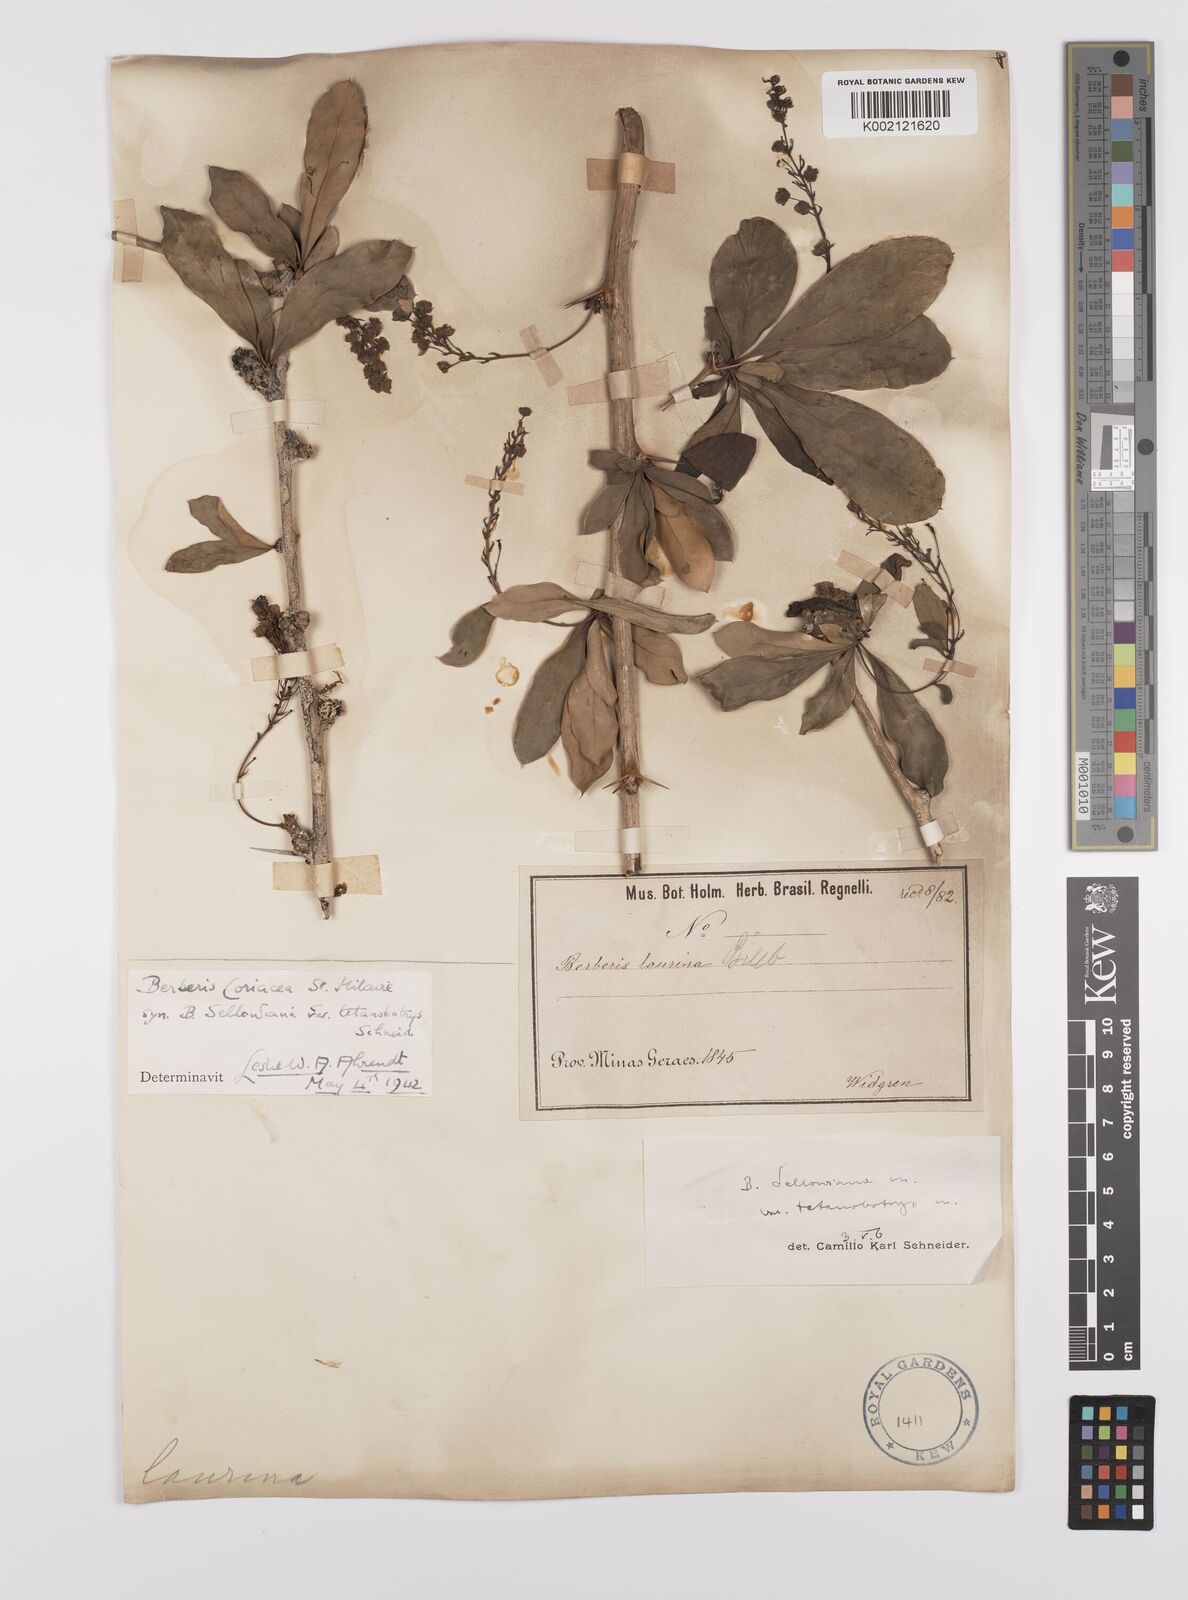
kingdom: Plantae
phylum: Tracheophyta
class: Magnoliopsida
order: Ranunculales
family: Berberidaceae
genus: Berberis
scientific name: Berberis
